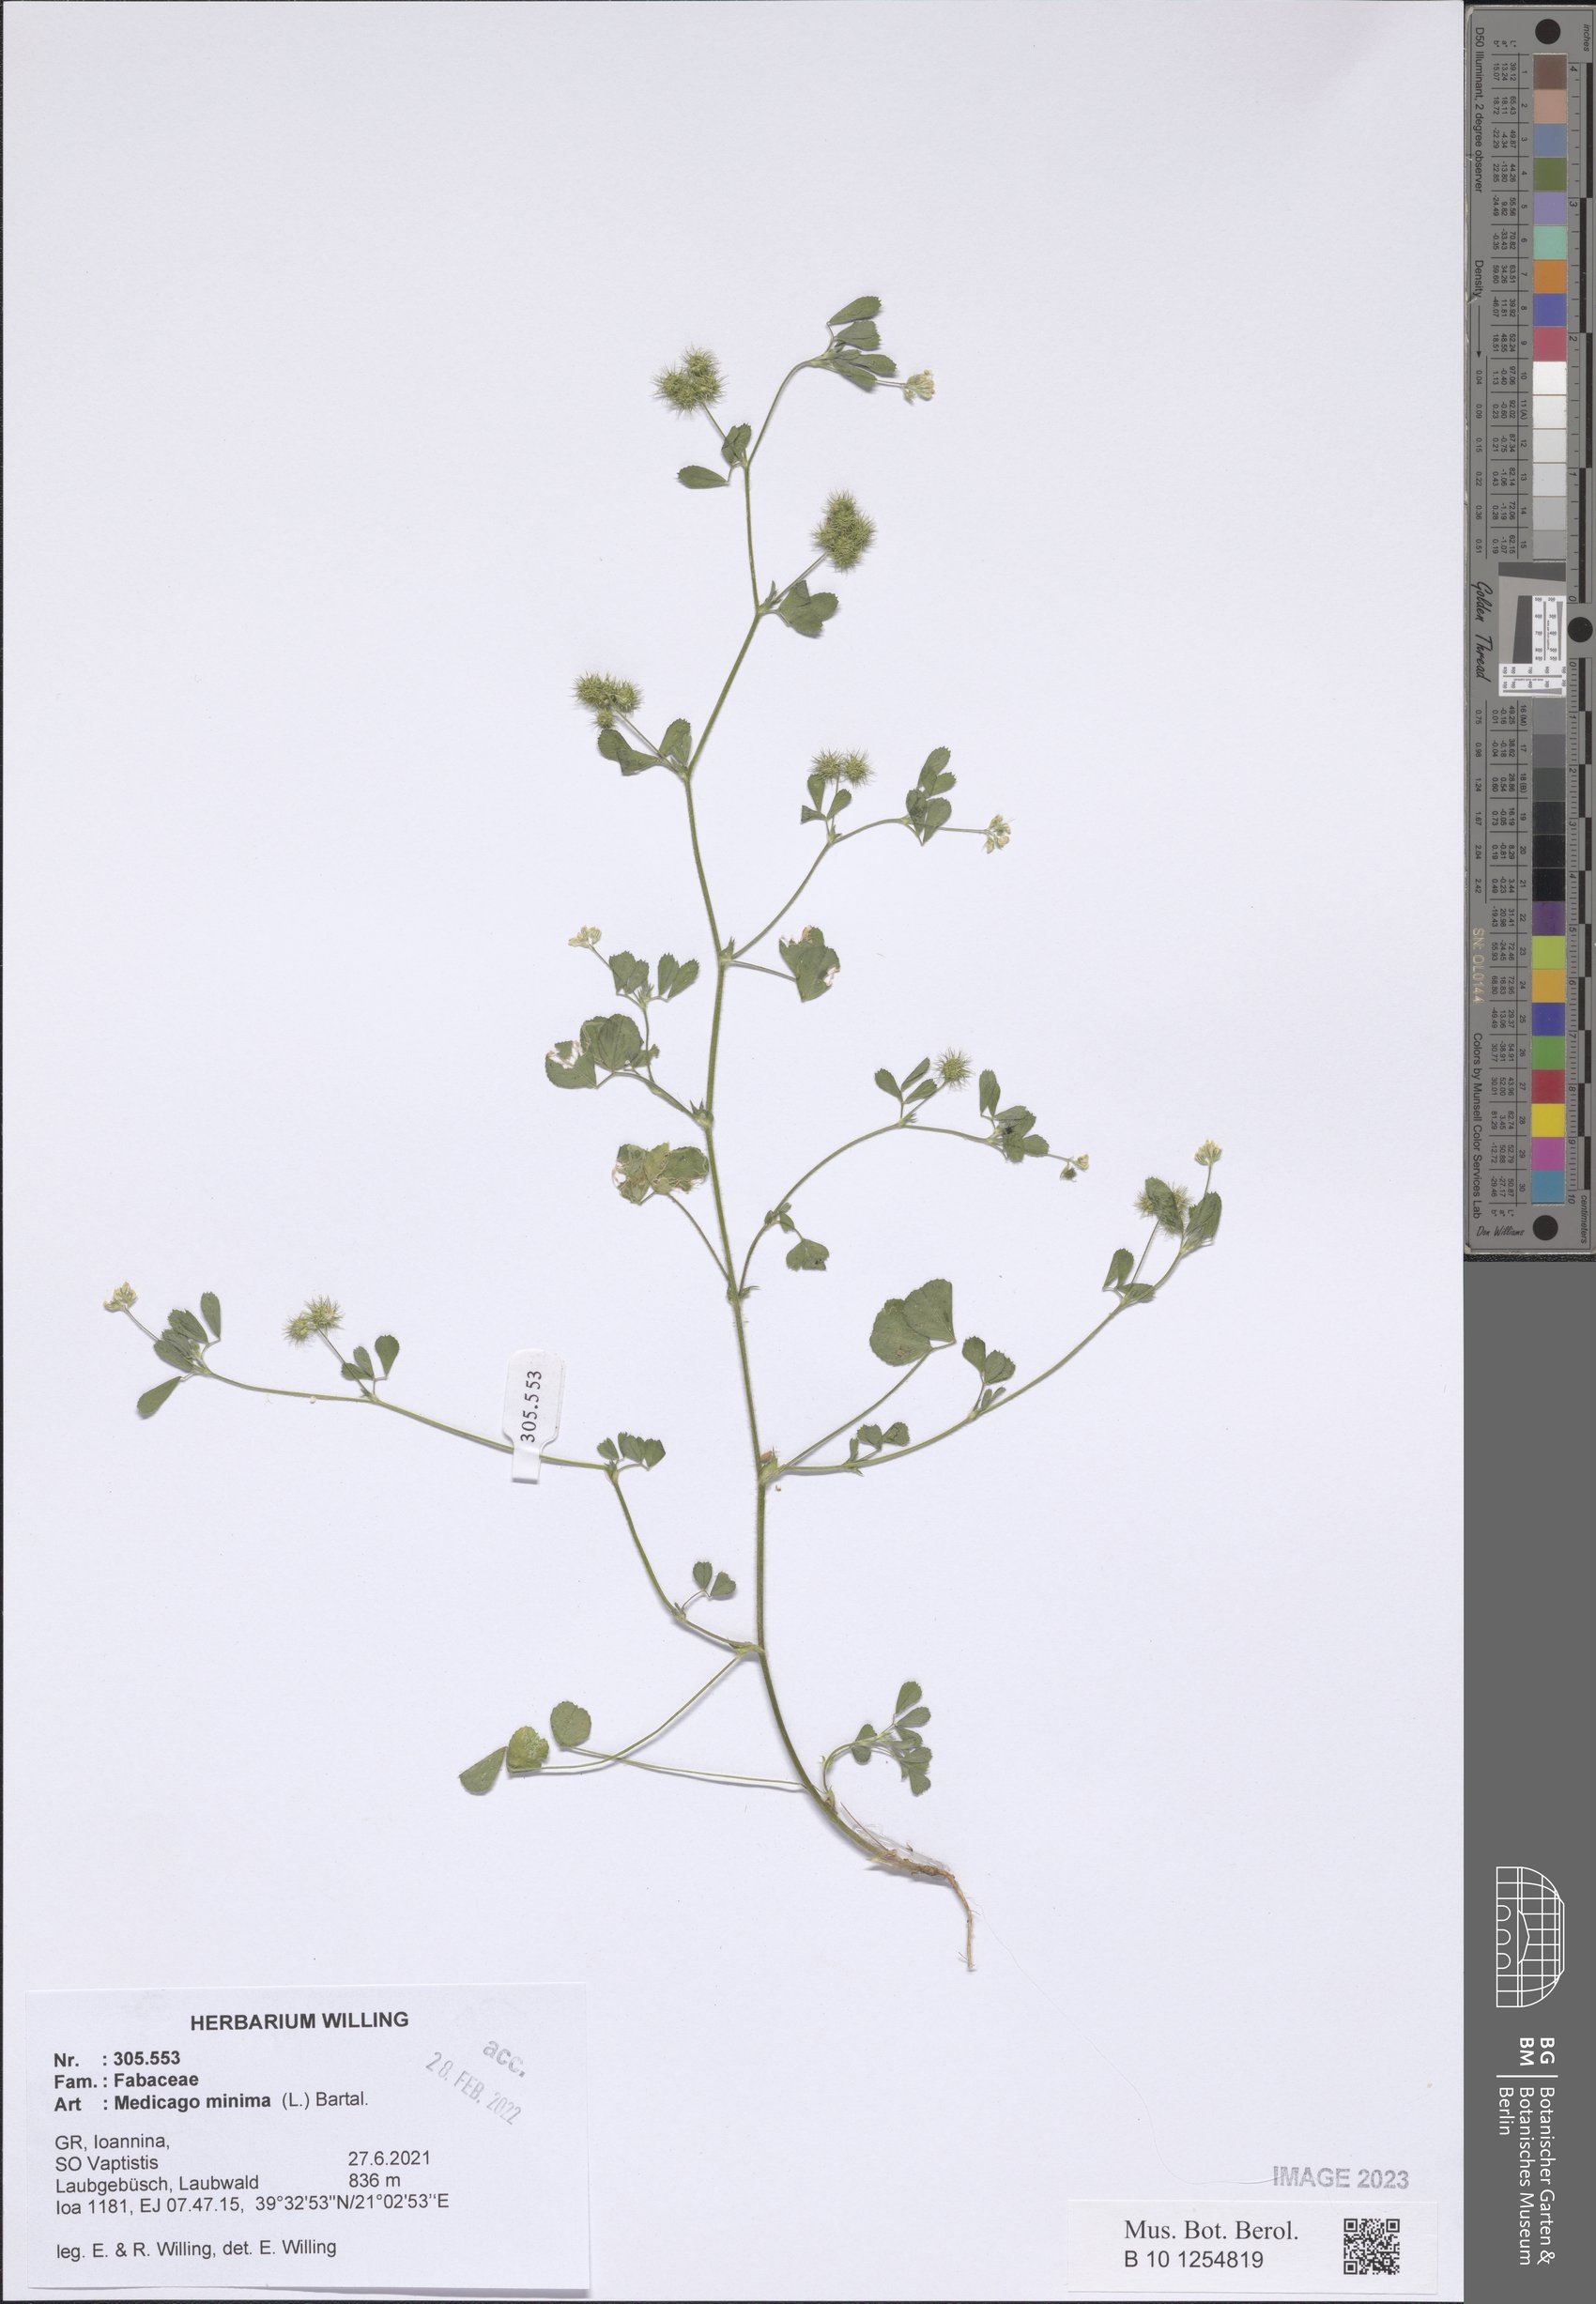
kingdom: Plantae
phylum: Tracheophyta
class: Magnoliopsida
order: Fabales
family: Fabaceae
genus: Medicago
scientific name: Medicago minima
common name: Little bur-clover
